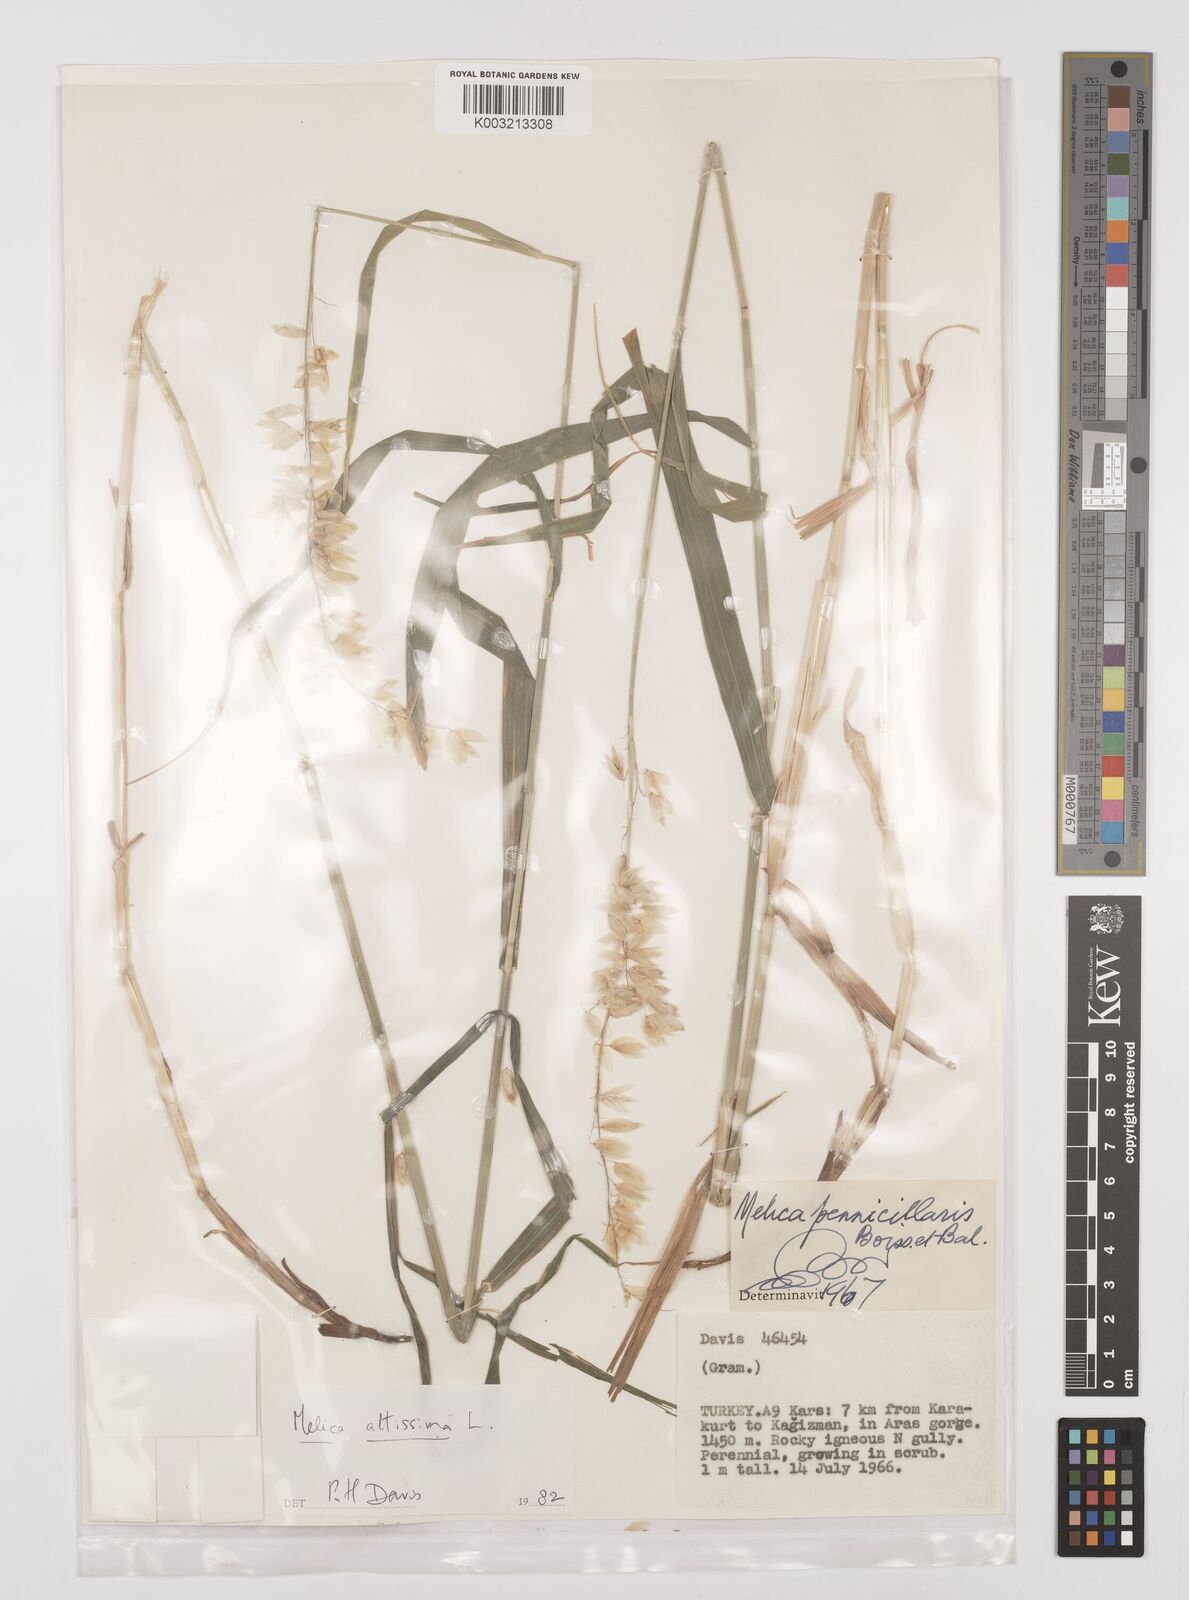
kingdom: Plantae
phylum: Tracheophyta
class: Liliopsida
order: Poales
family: Poaceae
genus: Melica
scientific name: Melica altissima
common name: Siberian melicgrass
